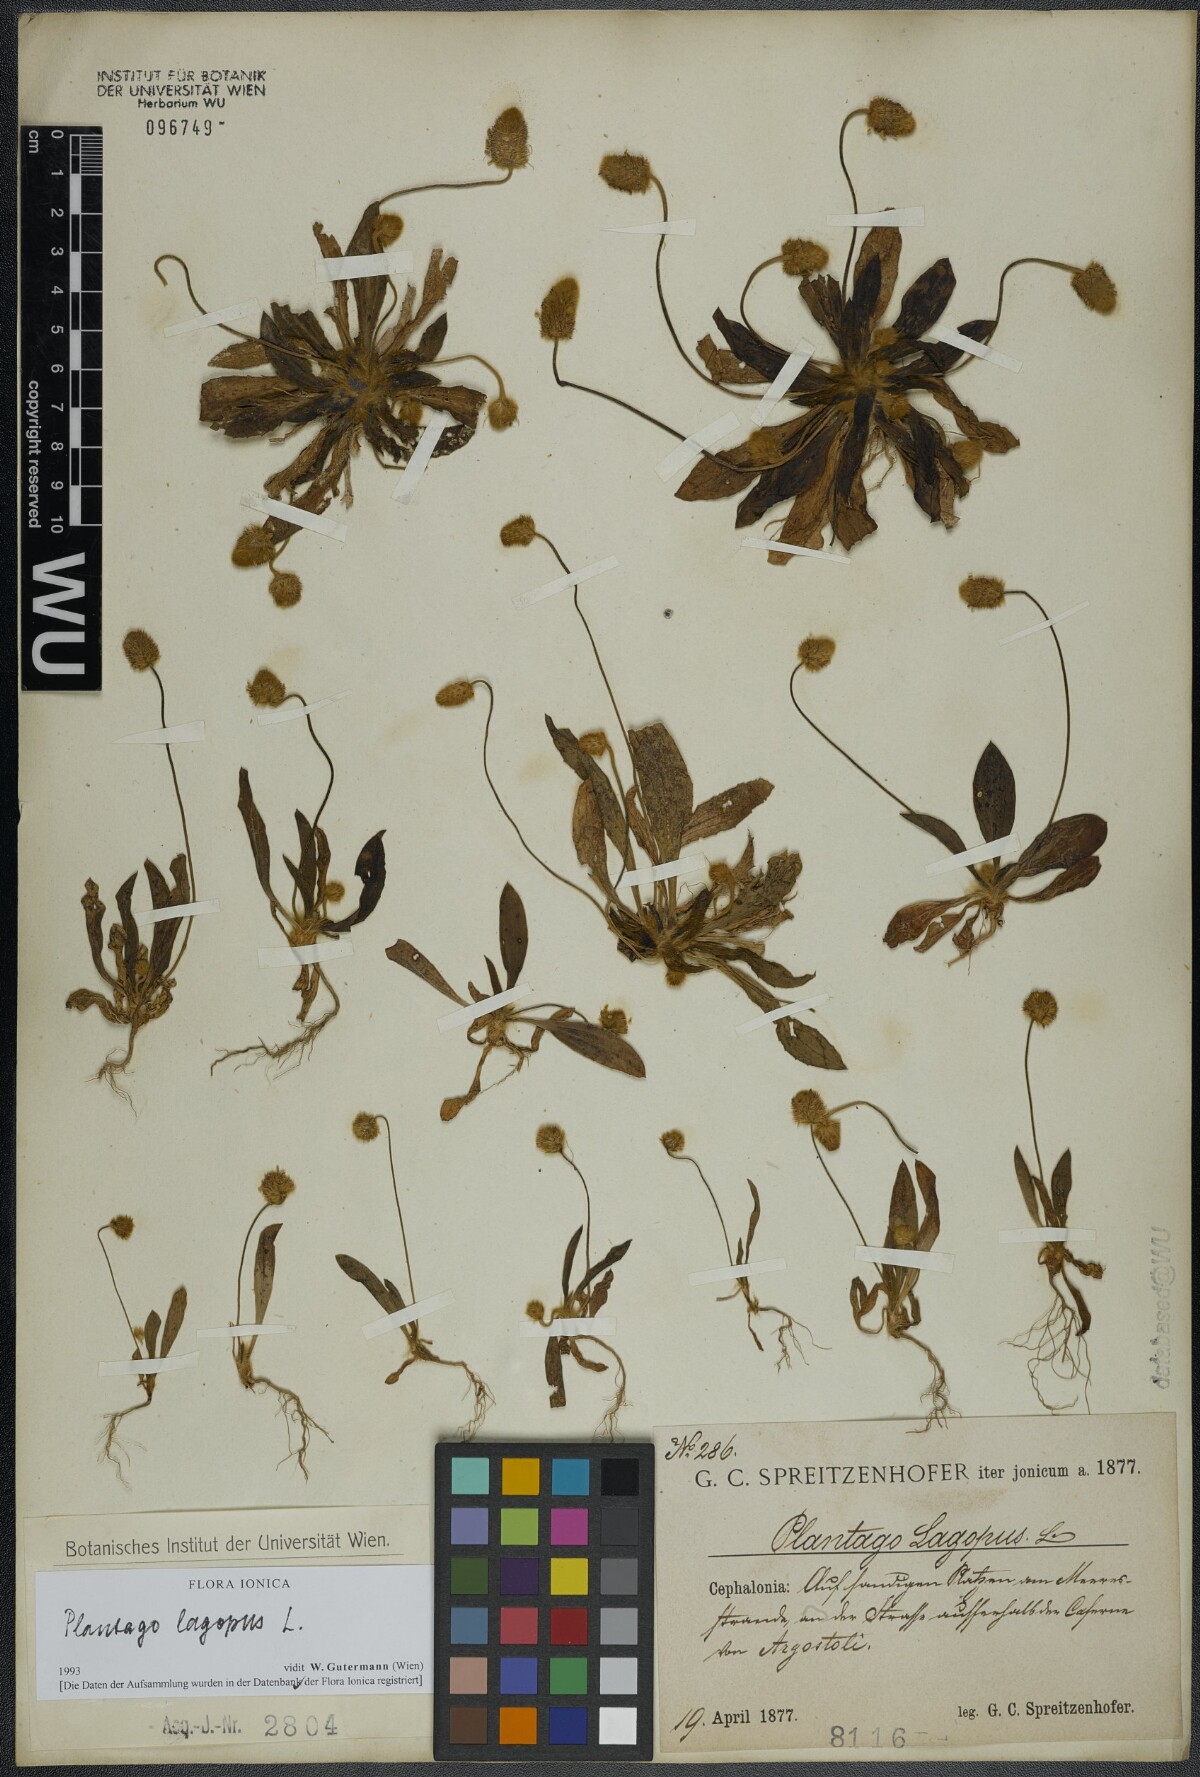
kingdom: Plantae
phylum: Tracheophyta
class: Magnoliopsida
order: Lamiales
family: Plantaginaceae
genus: Plantago
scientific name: Plantago lagopus
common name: Hare-foot plantain
